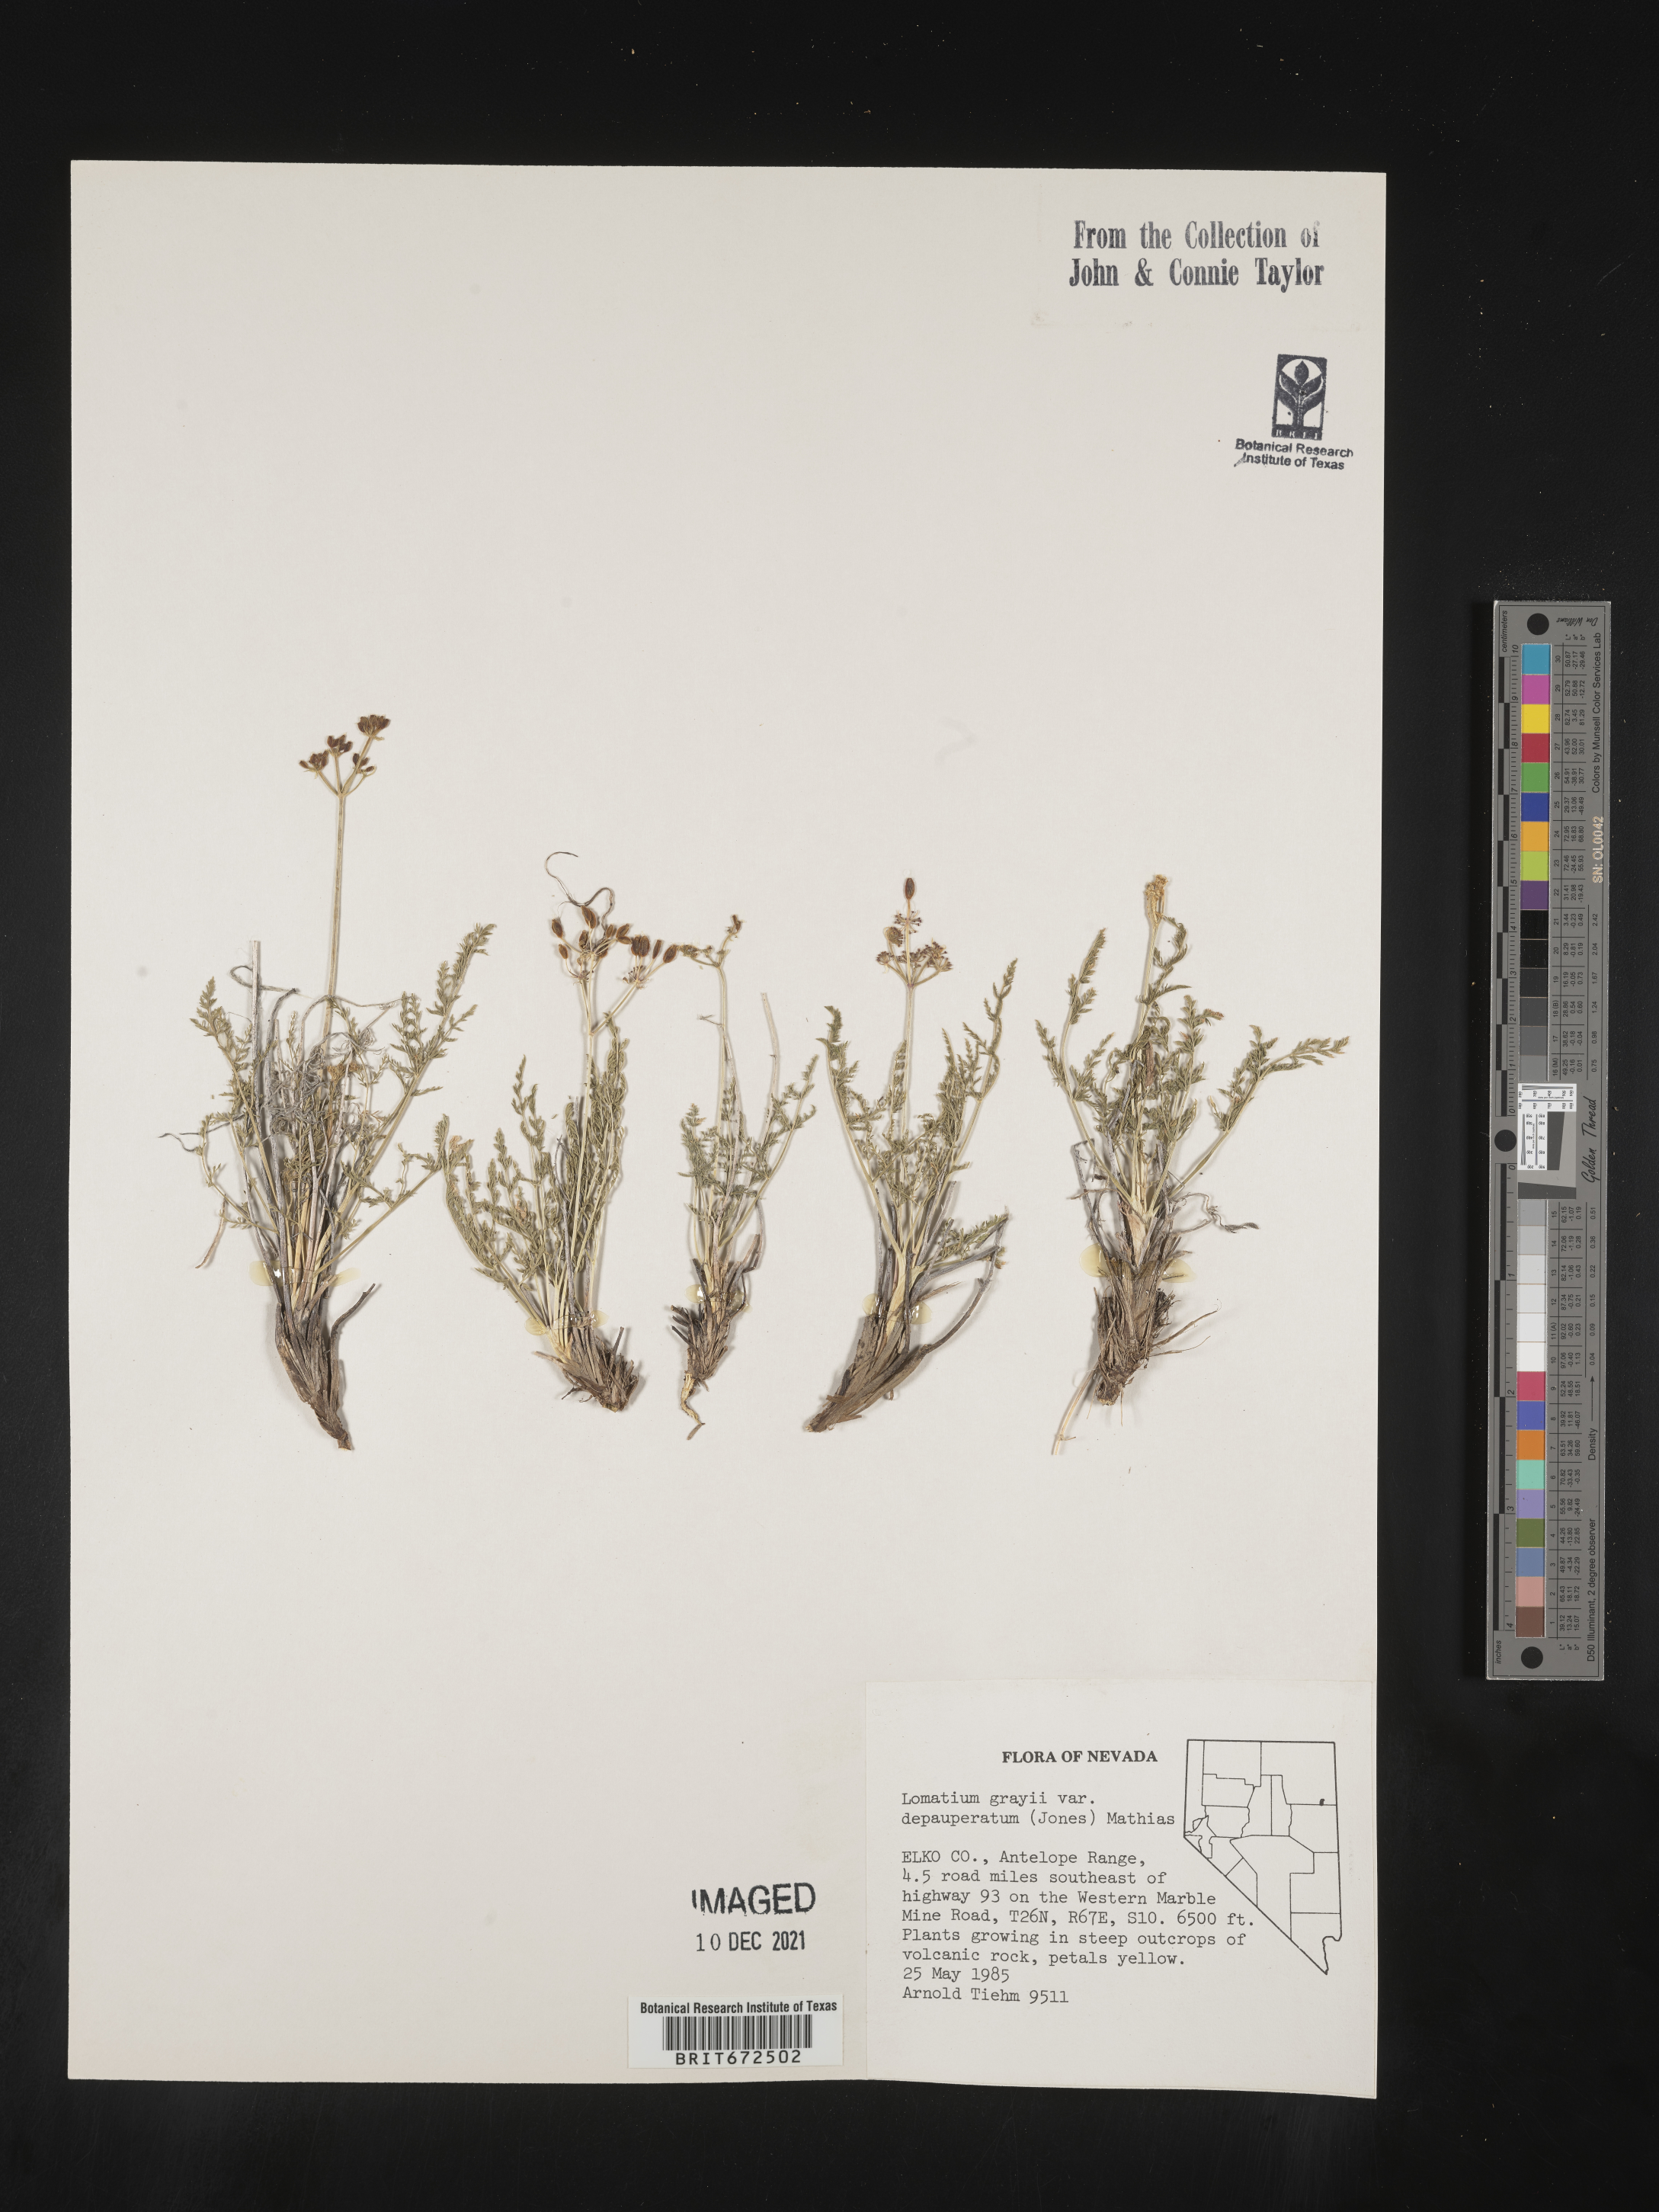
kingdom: Plantae
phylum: Tracheophyta
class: Magnoliopsida
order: Apiales
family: Apiaceae
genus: Lomatium
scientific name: Lomatium grayi
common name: Milfoil lomatium
